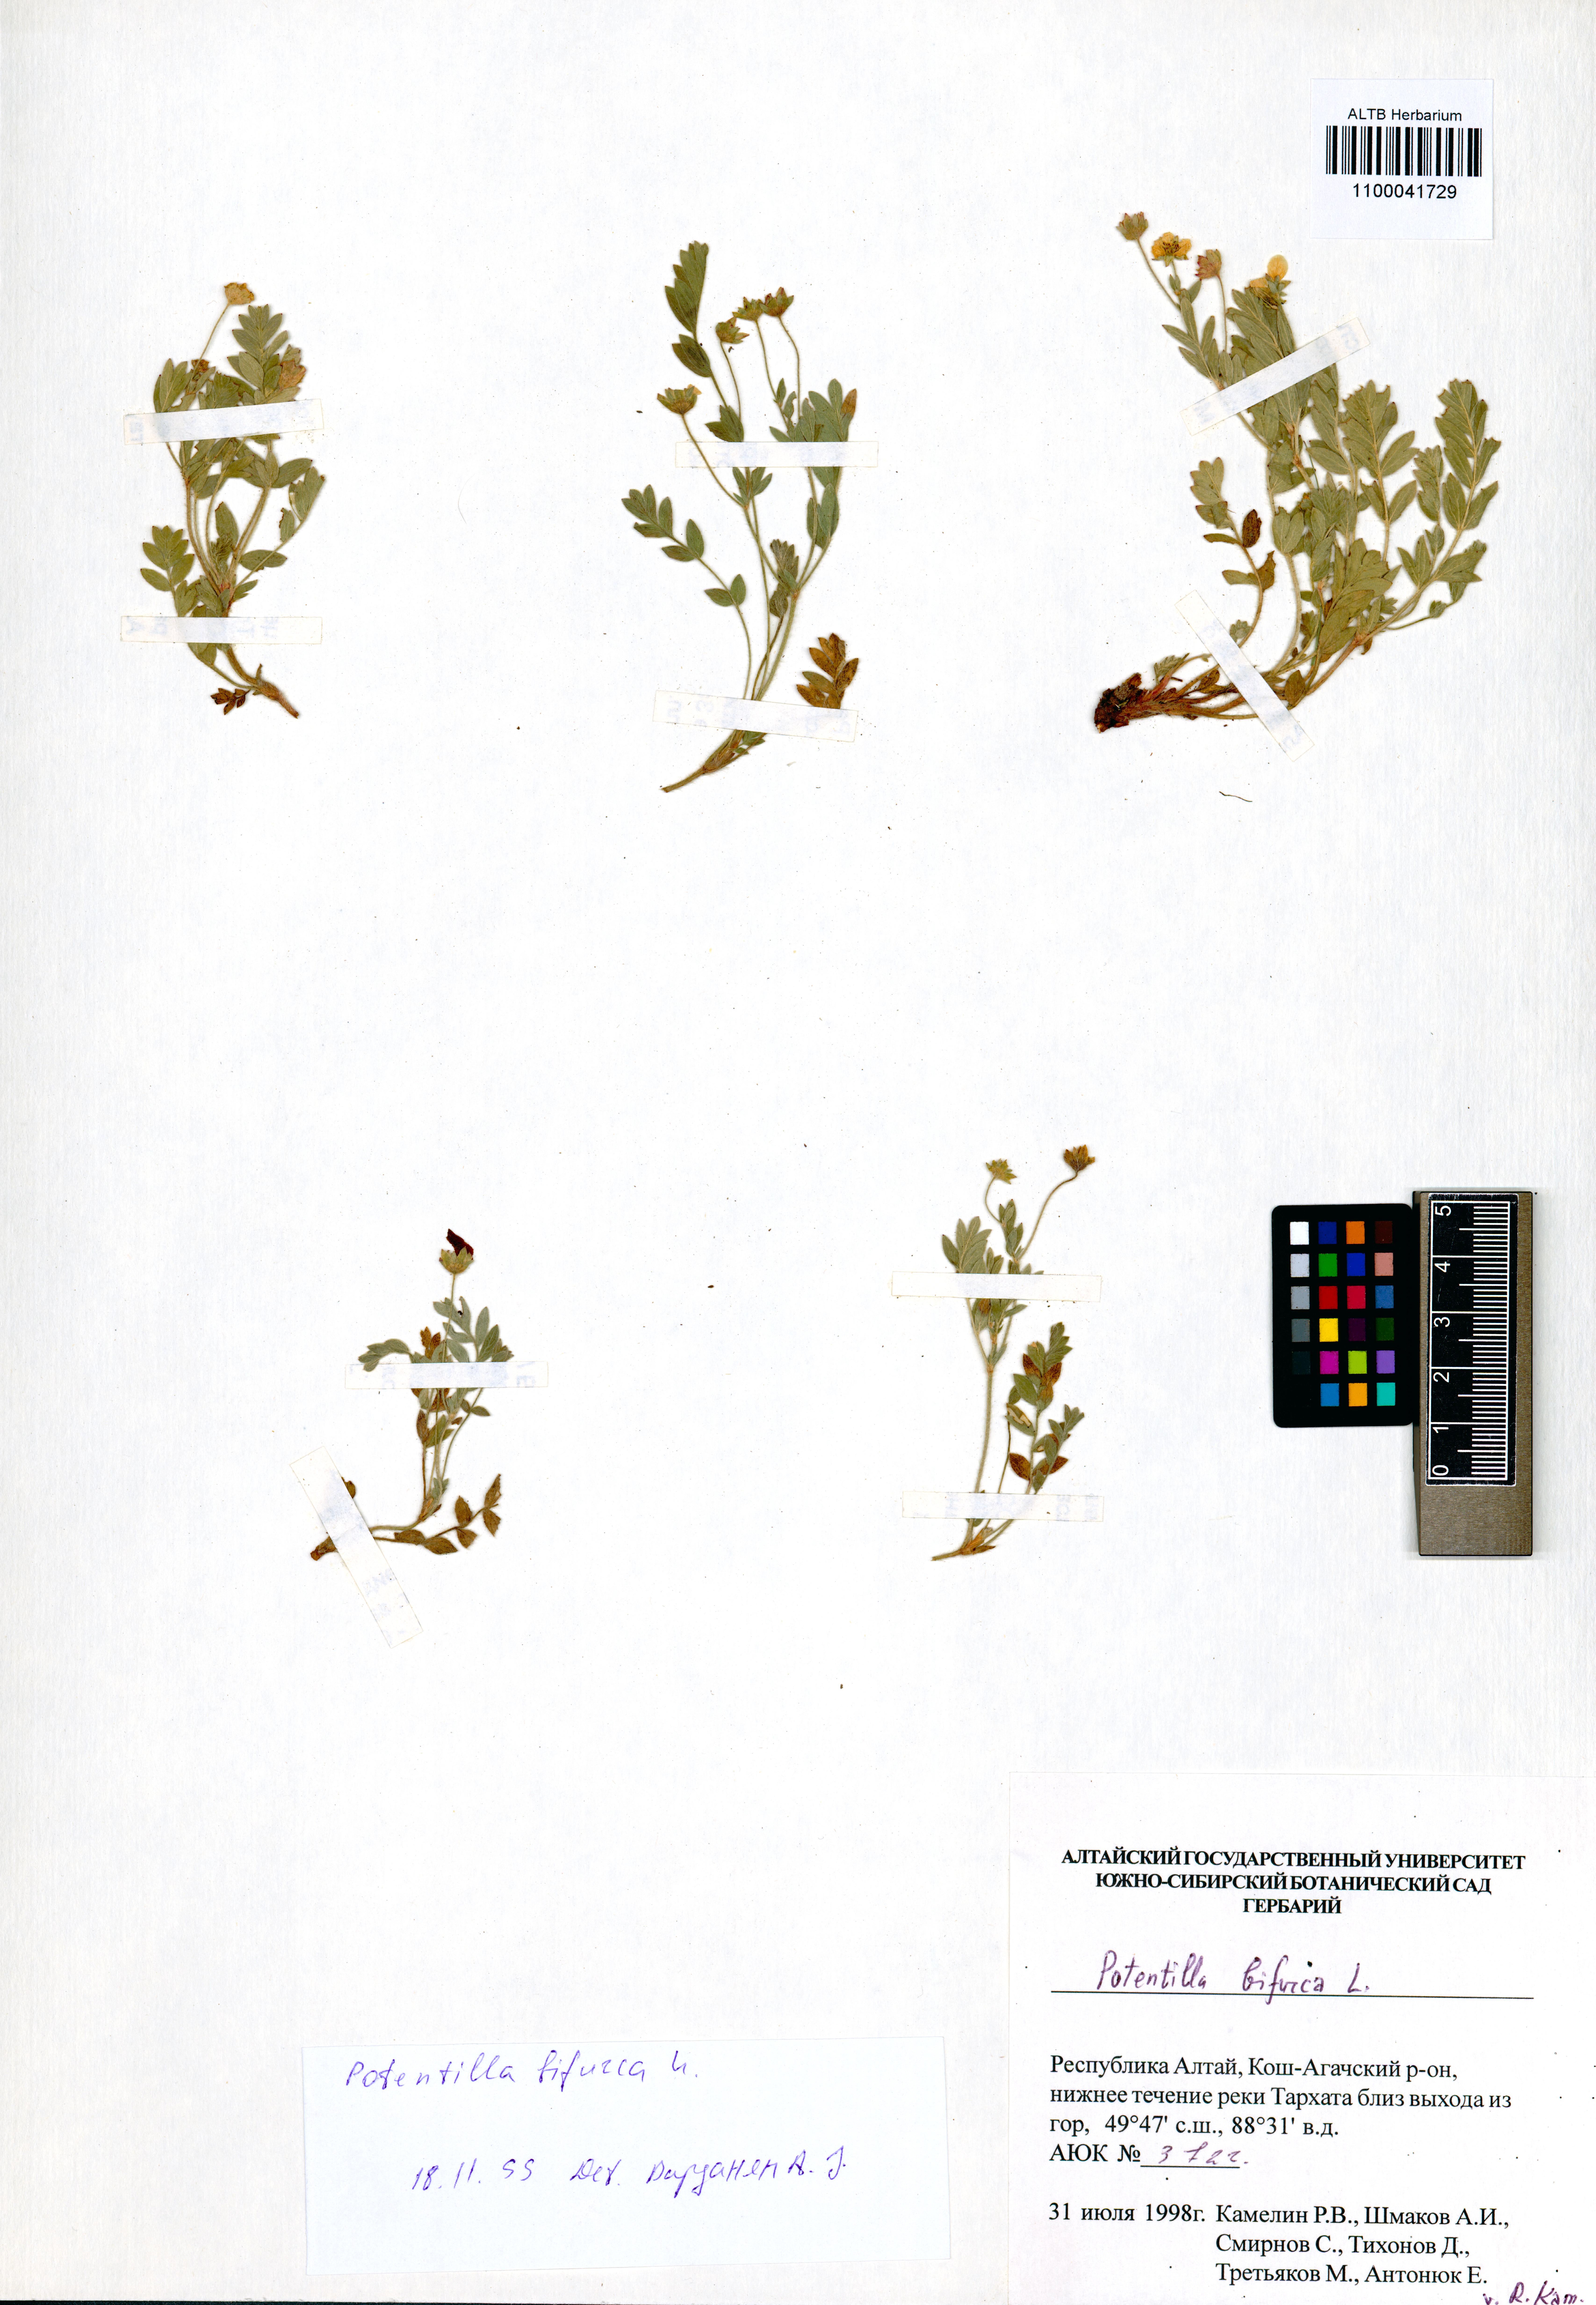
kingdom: Plantae
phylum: Tracheophyta
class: Magnoliopsida
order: Rosales
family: Rosaceae
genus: Sibbaldianthe
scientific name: Sibbaldianthe bifurca
